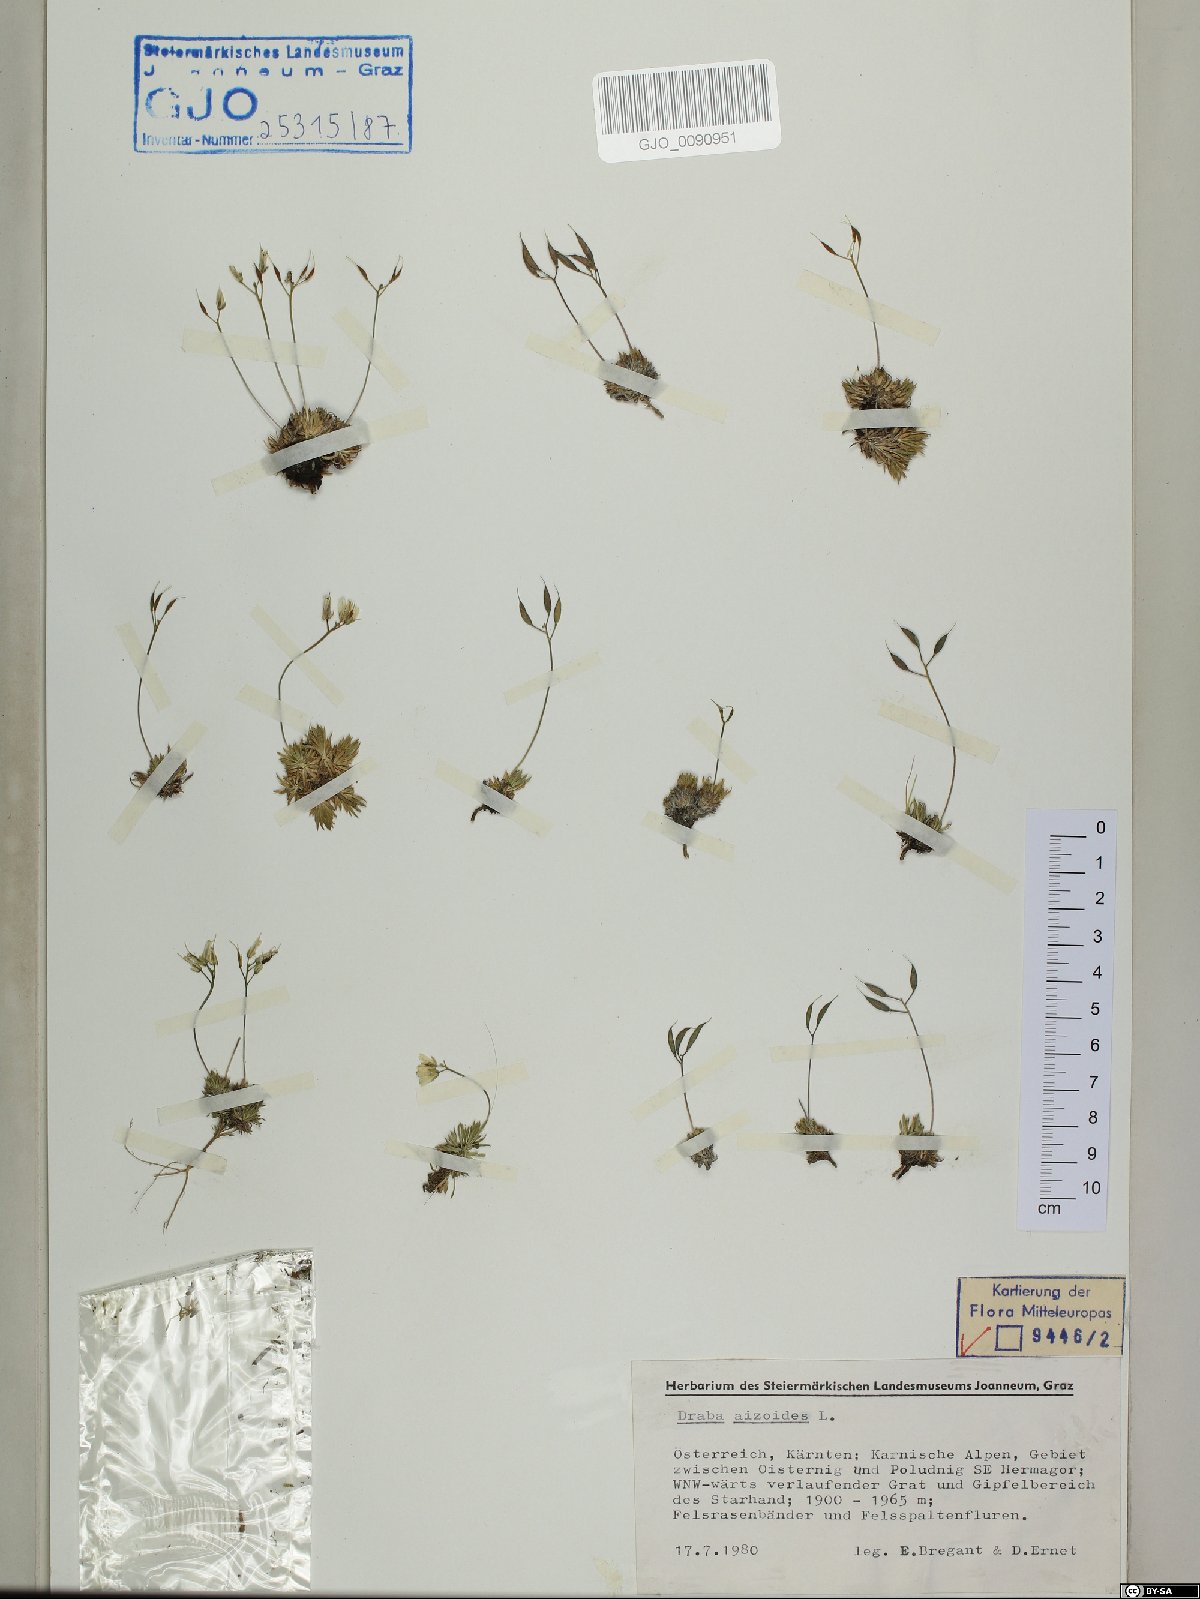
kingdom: Plantae
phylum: Tracheophyta
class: Magnoliopsida
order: Brassicales
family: Brassicaceae
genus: Draba
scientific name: Draba aizoides
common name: Yellow whitlowgrass
